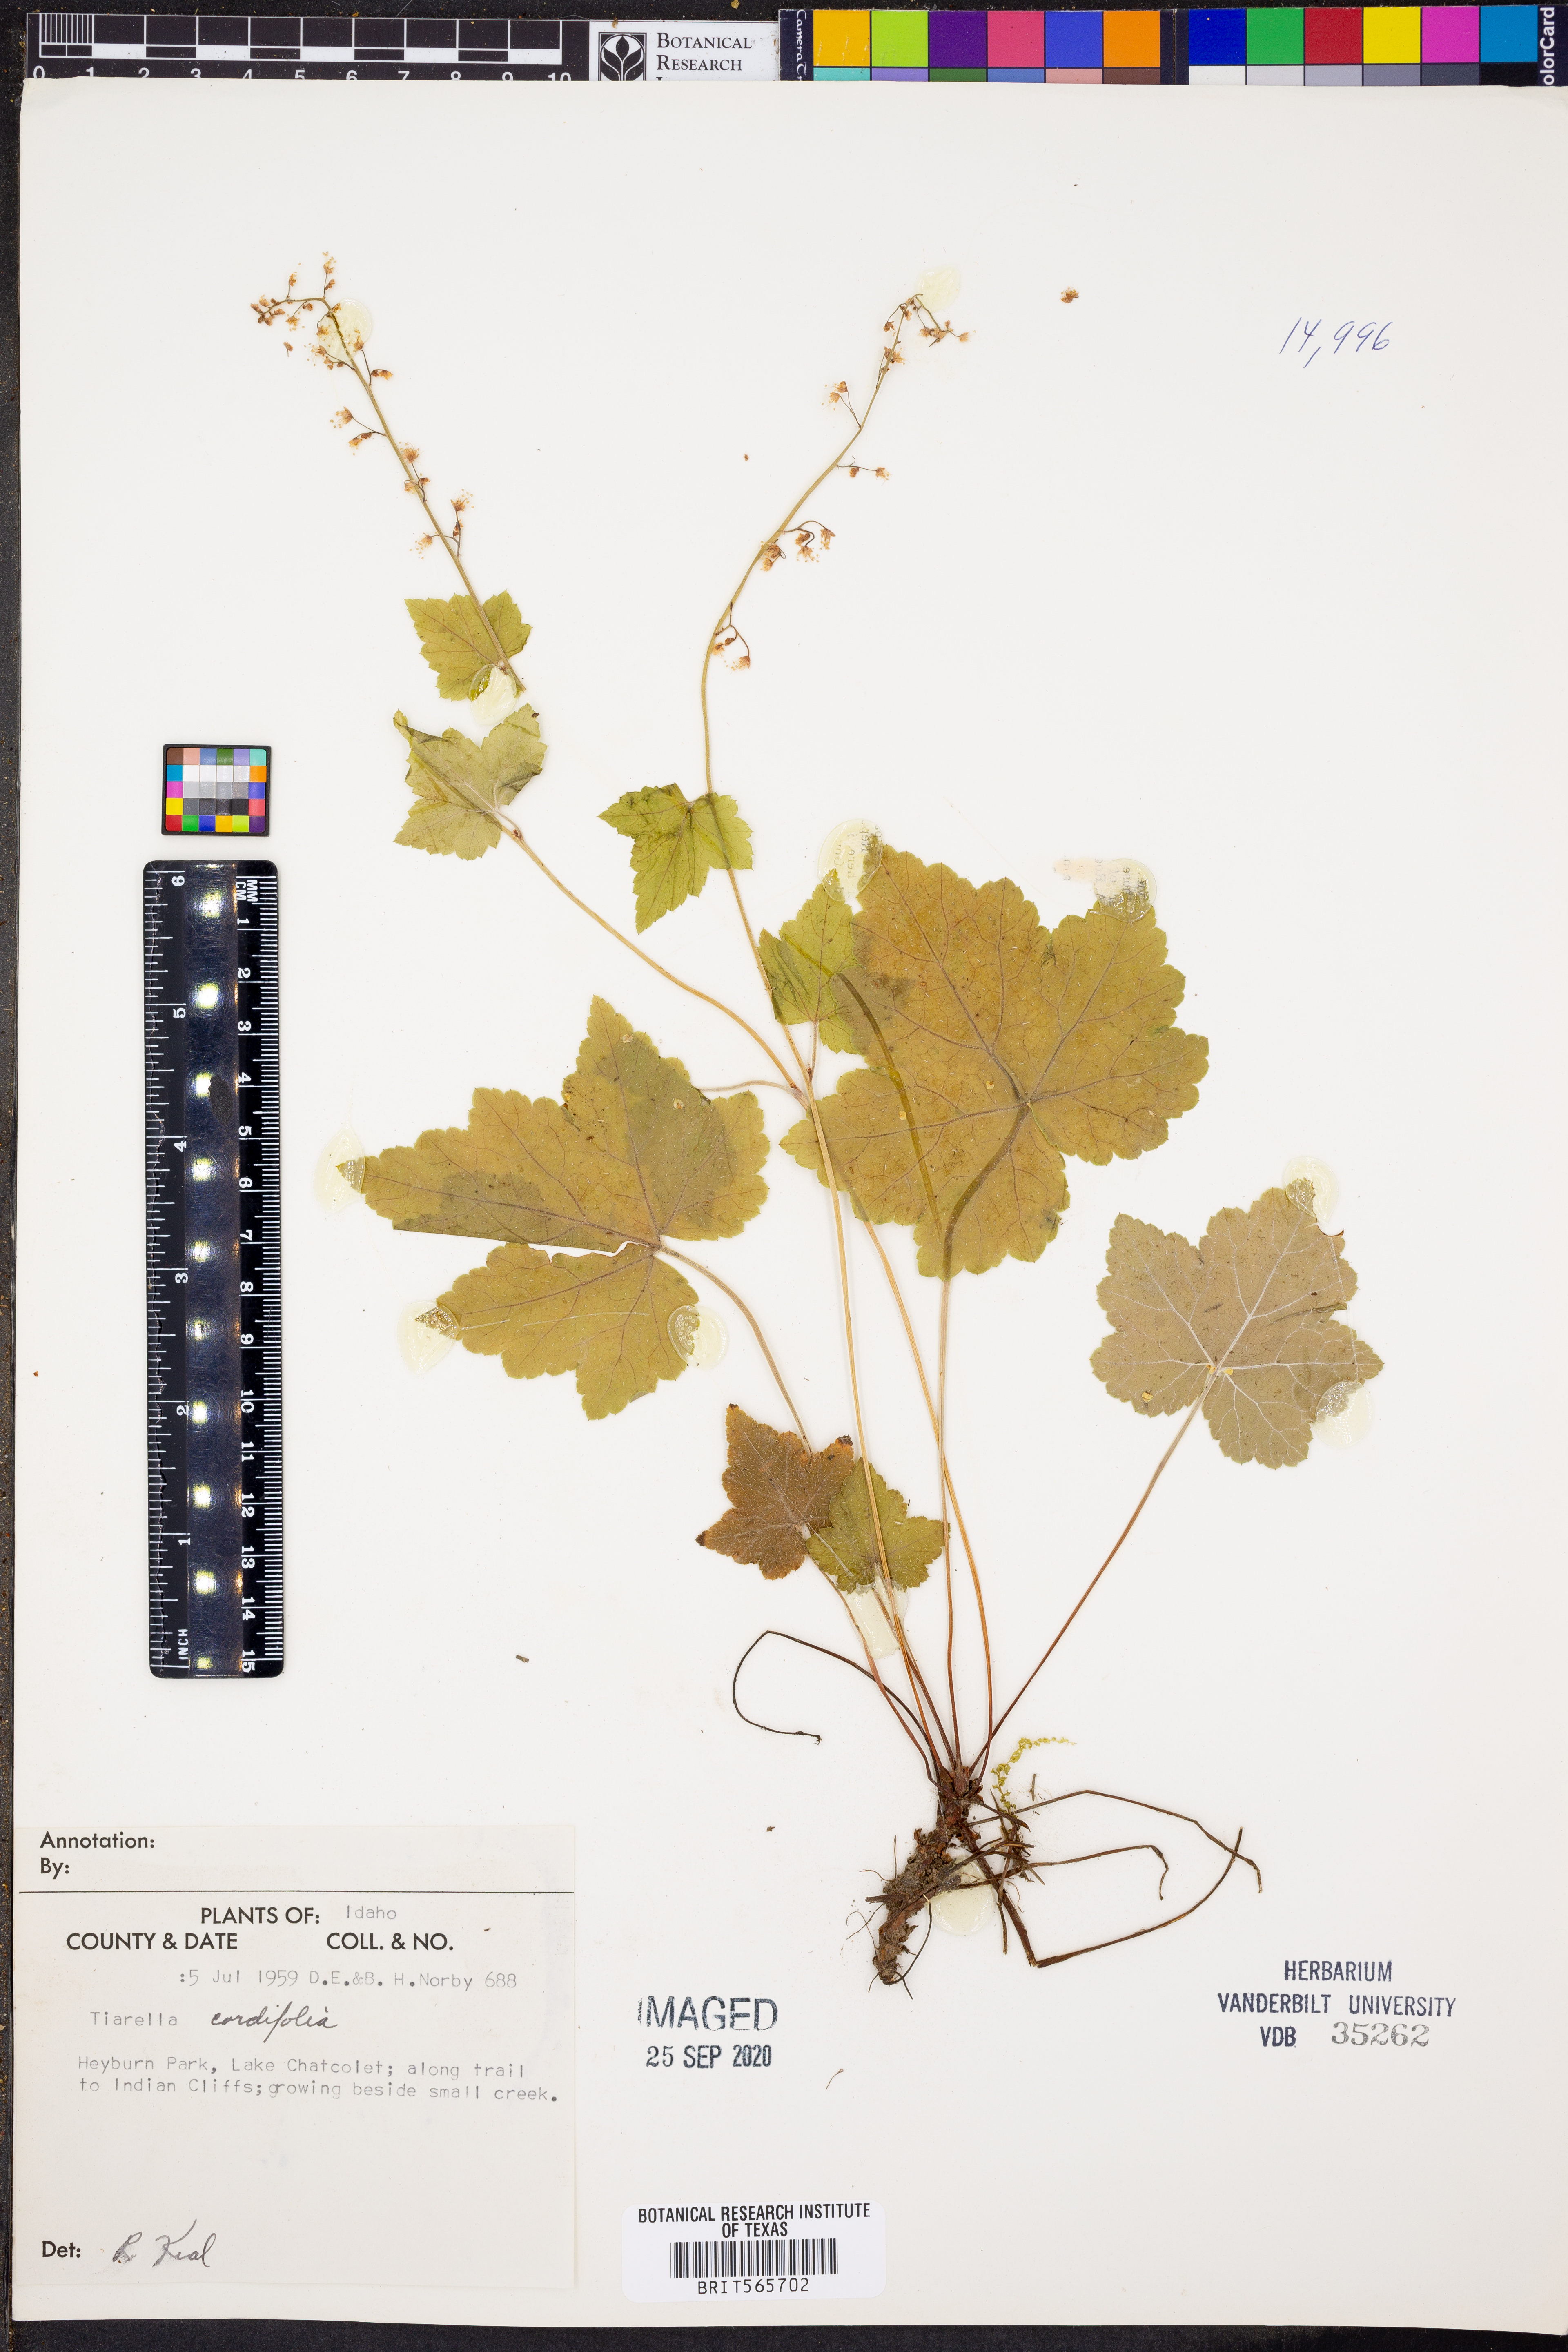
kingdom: Plantae
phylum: Tracheophyta
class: Magnoliopsida
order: Saxifragales
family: Saxifragaceae
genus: Tiarella
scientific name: Tiarella cordifolia
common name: Foamflower
